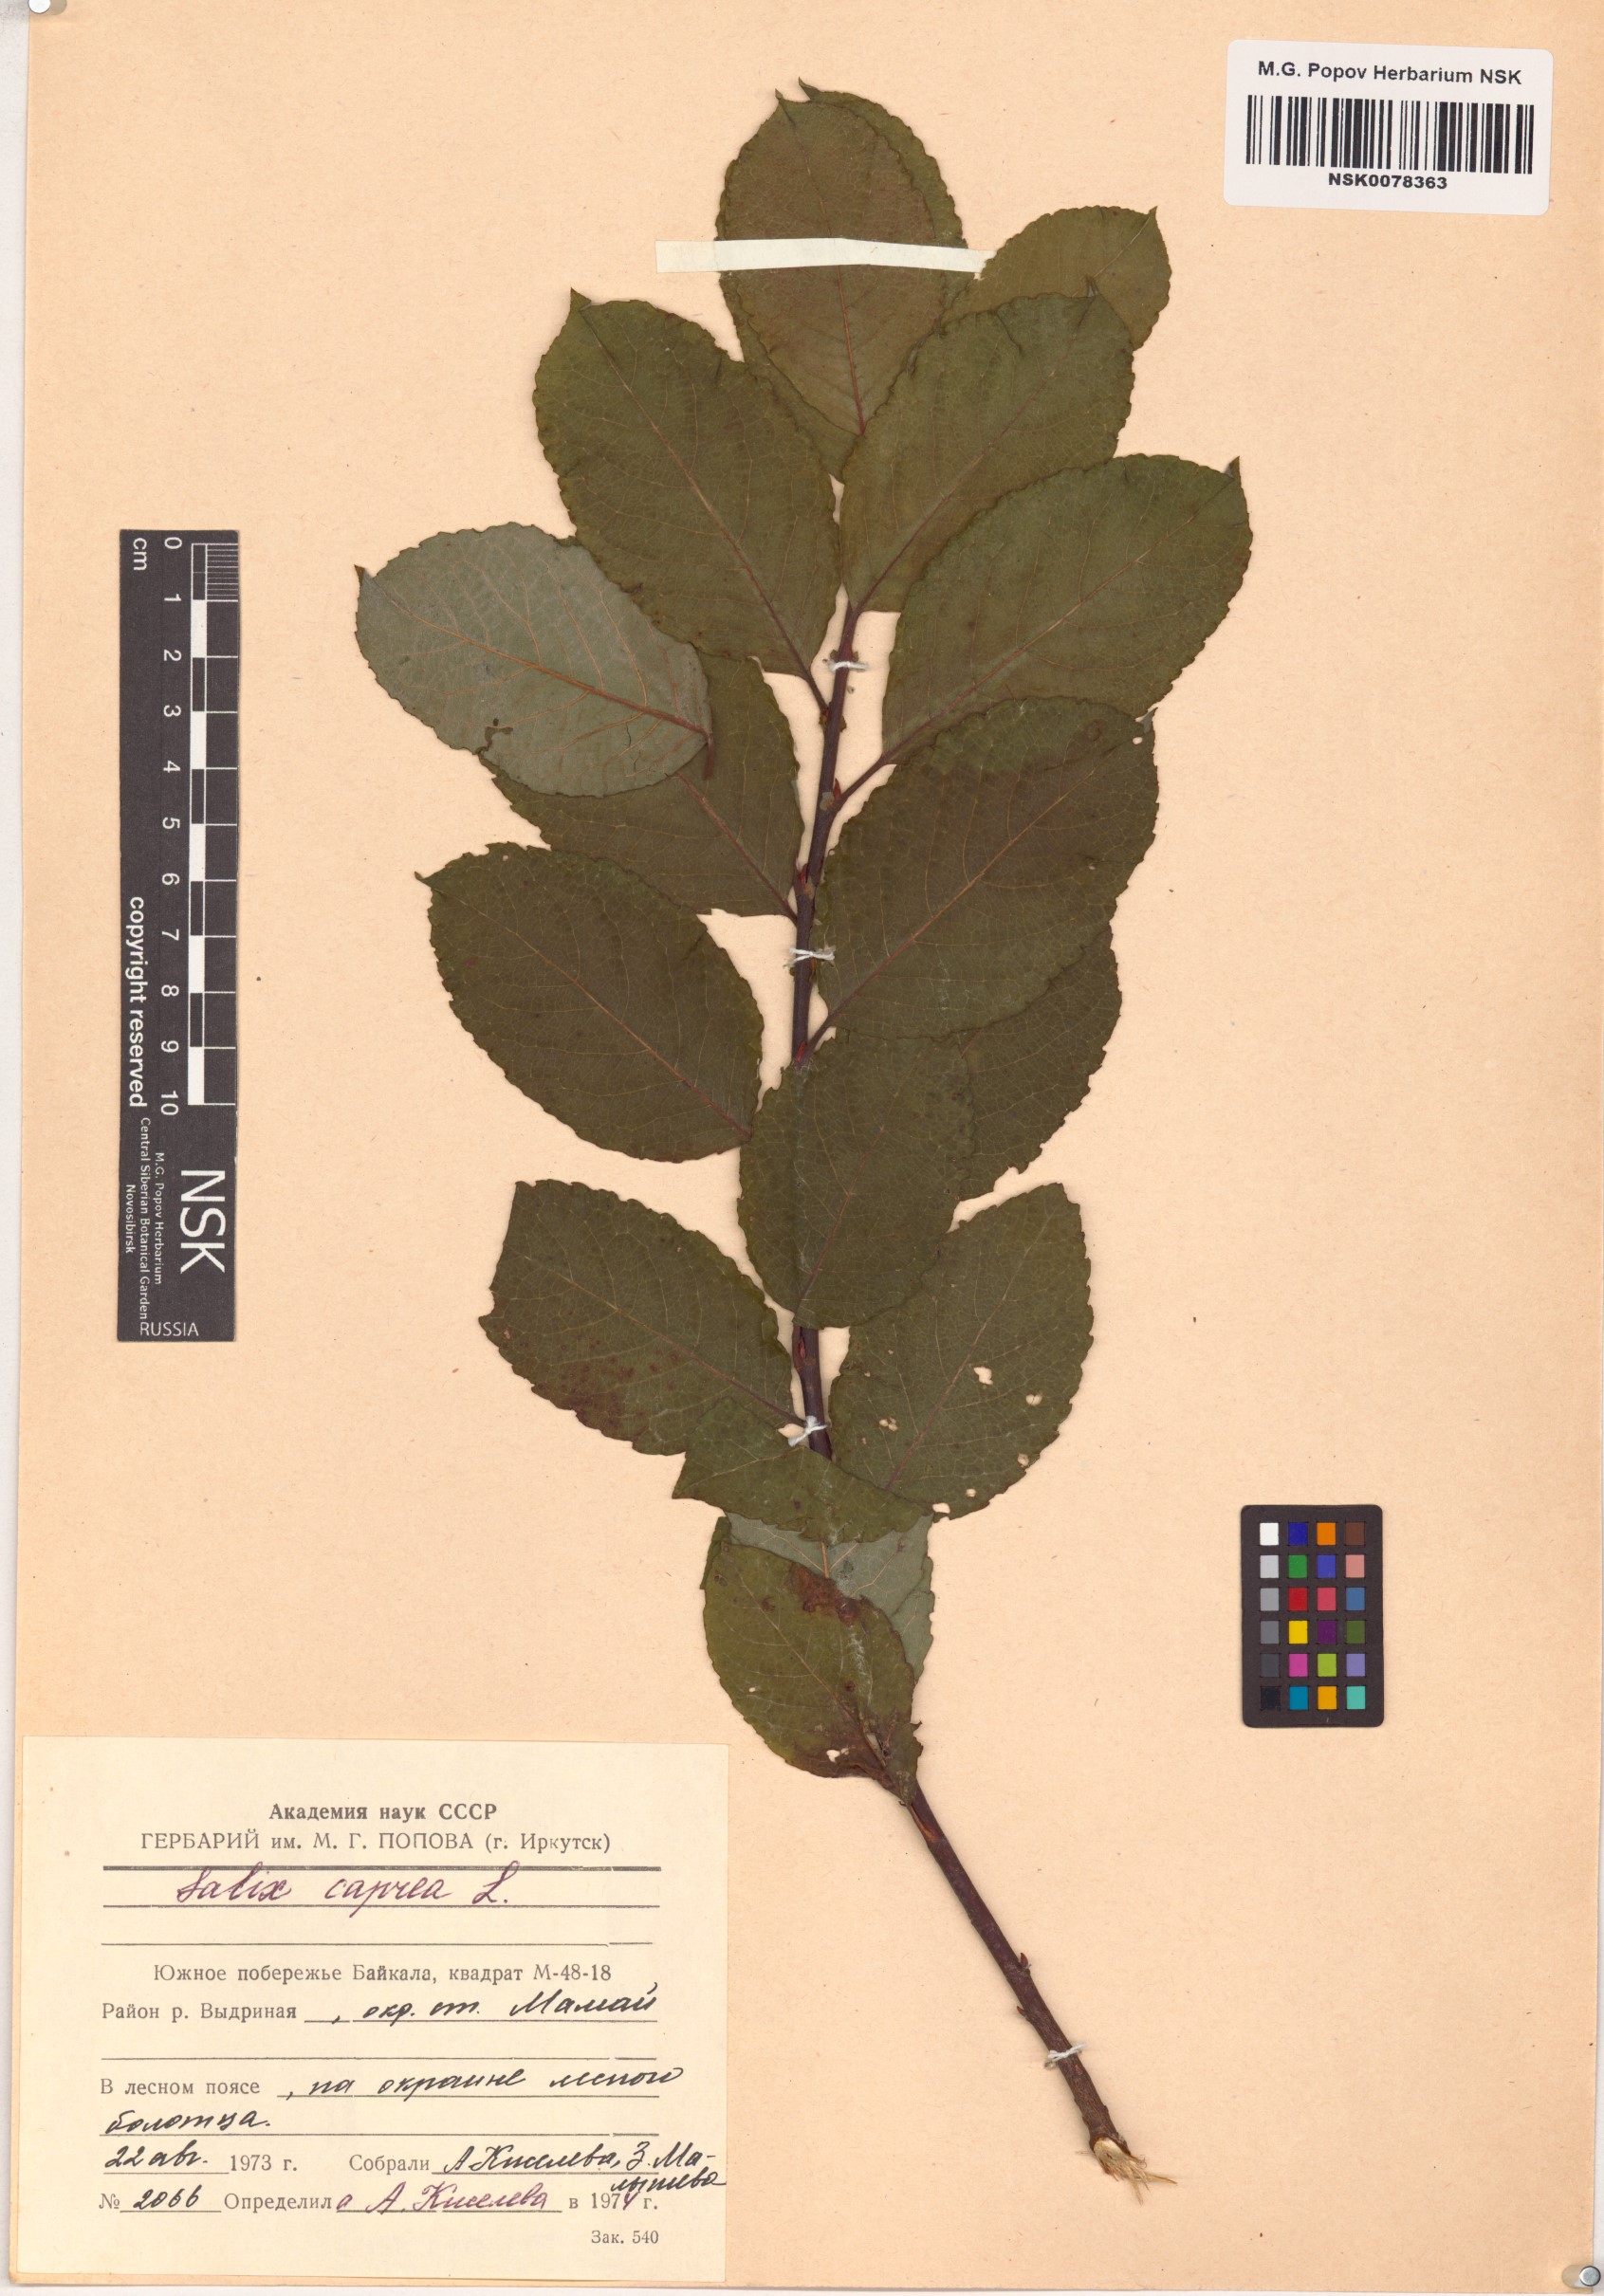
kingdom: Plantae
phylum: Tracheophyta
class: Magnoliopsida
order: Malpighiales
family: Salicaceae
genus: Salix
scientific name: Salix caprea
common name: Goat willow
